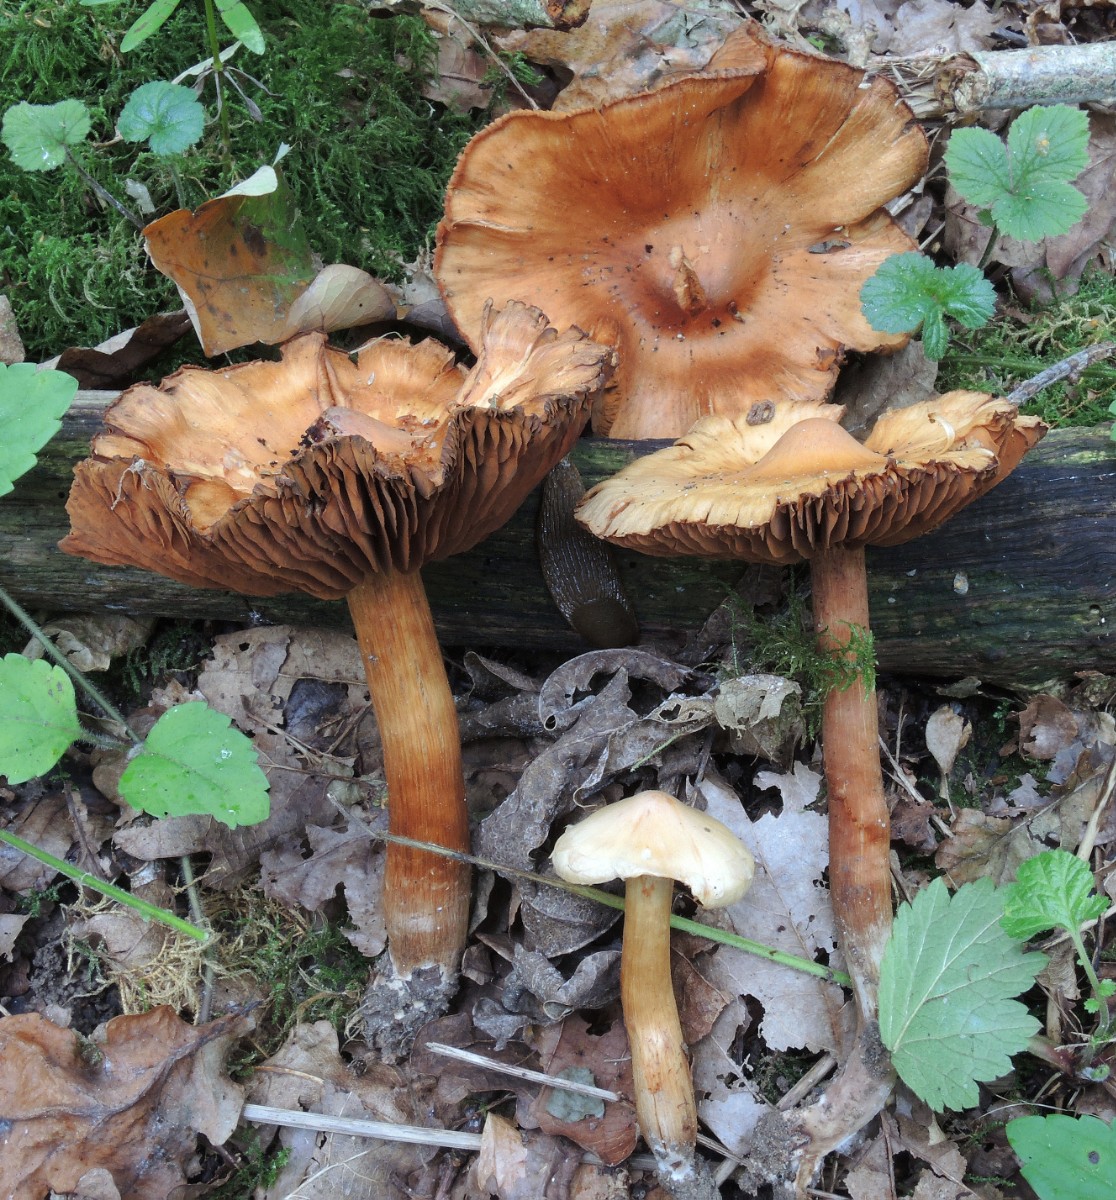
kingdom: Fungi
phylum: Basidiomycota
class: Agaricomycetes
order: Agaricales
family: Cortinariaceae
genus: Cortinarius
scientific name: Cortinarius hinnuleoarmillatus
